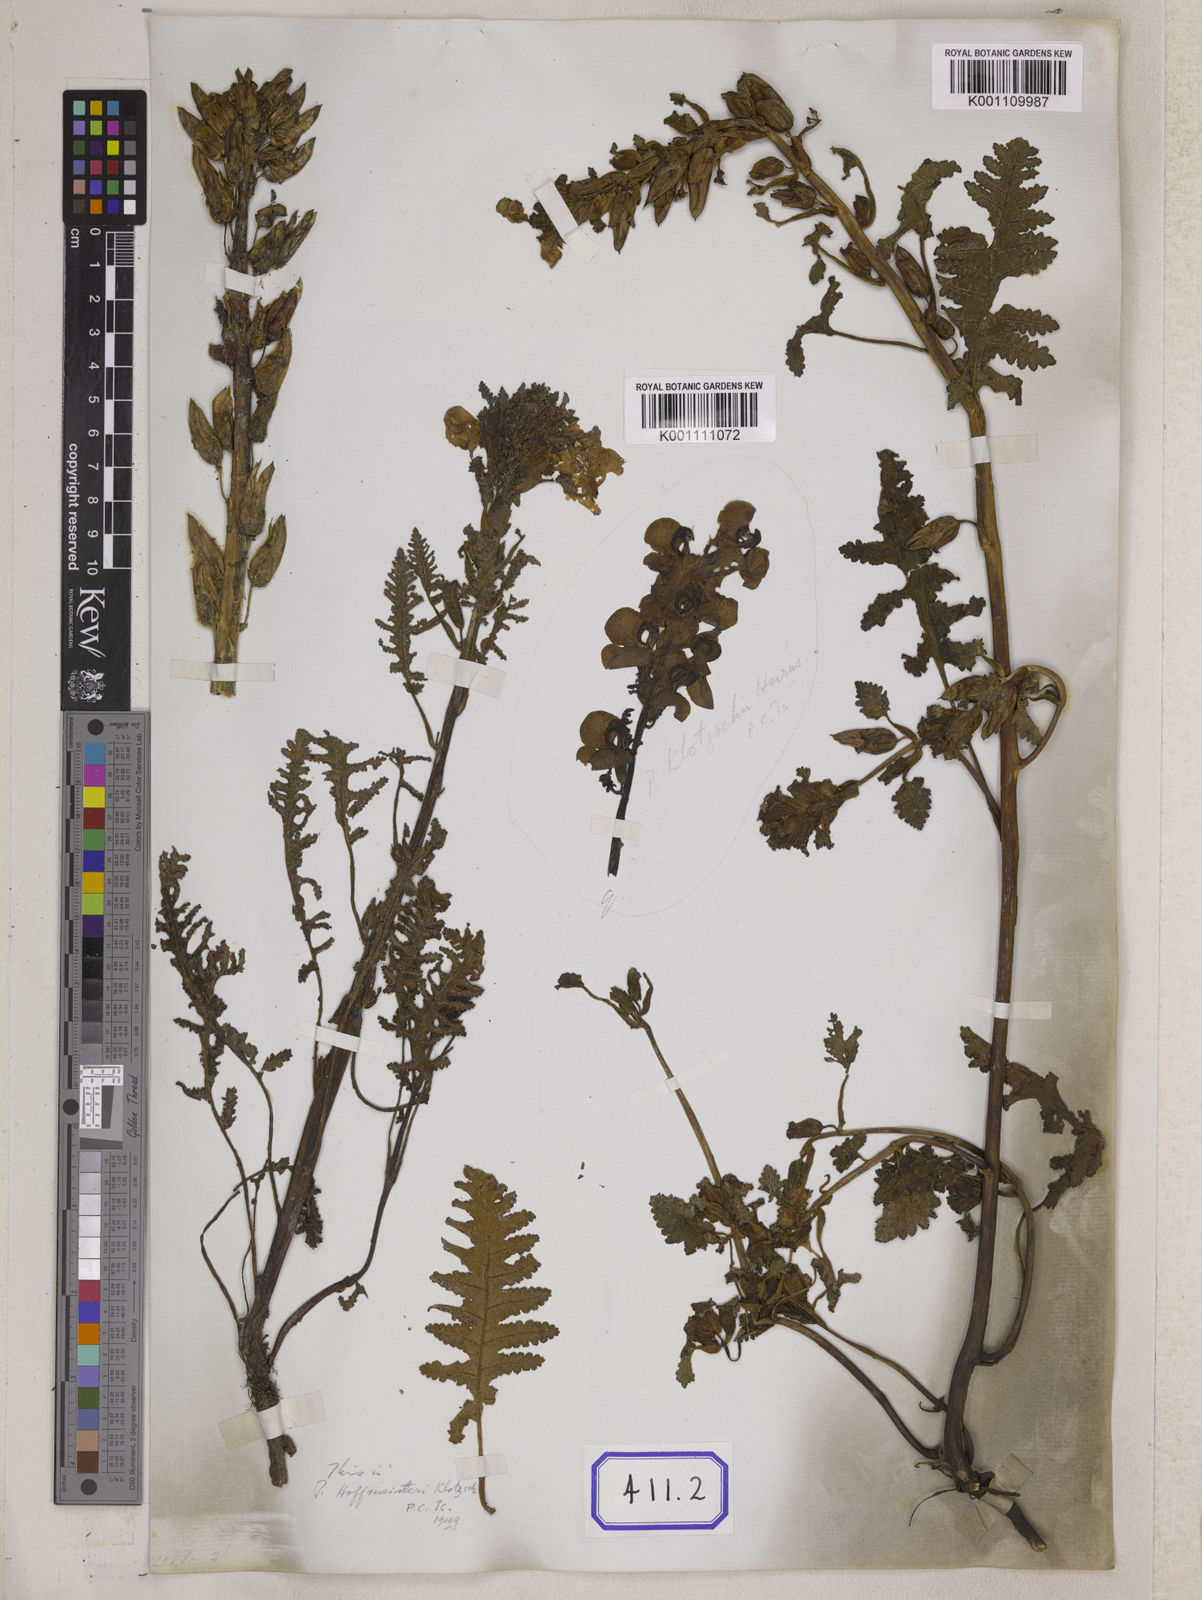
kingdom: Plantae
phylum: Tracheophyta
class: Magnoliopsida
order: Lamiales
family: Orobanchaceae
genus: Pedicularis
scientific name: Pedicularis megalantha
